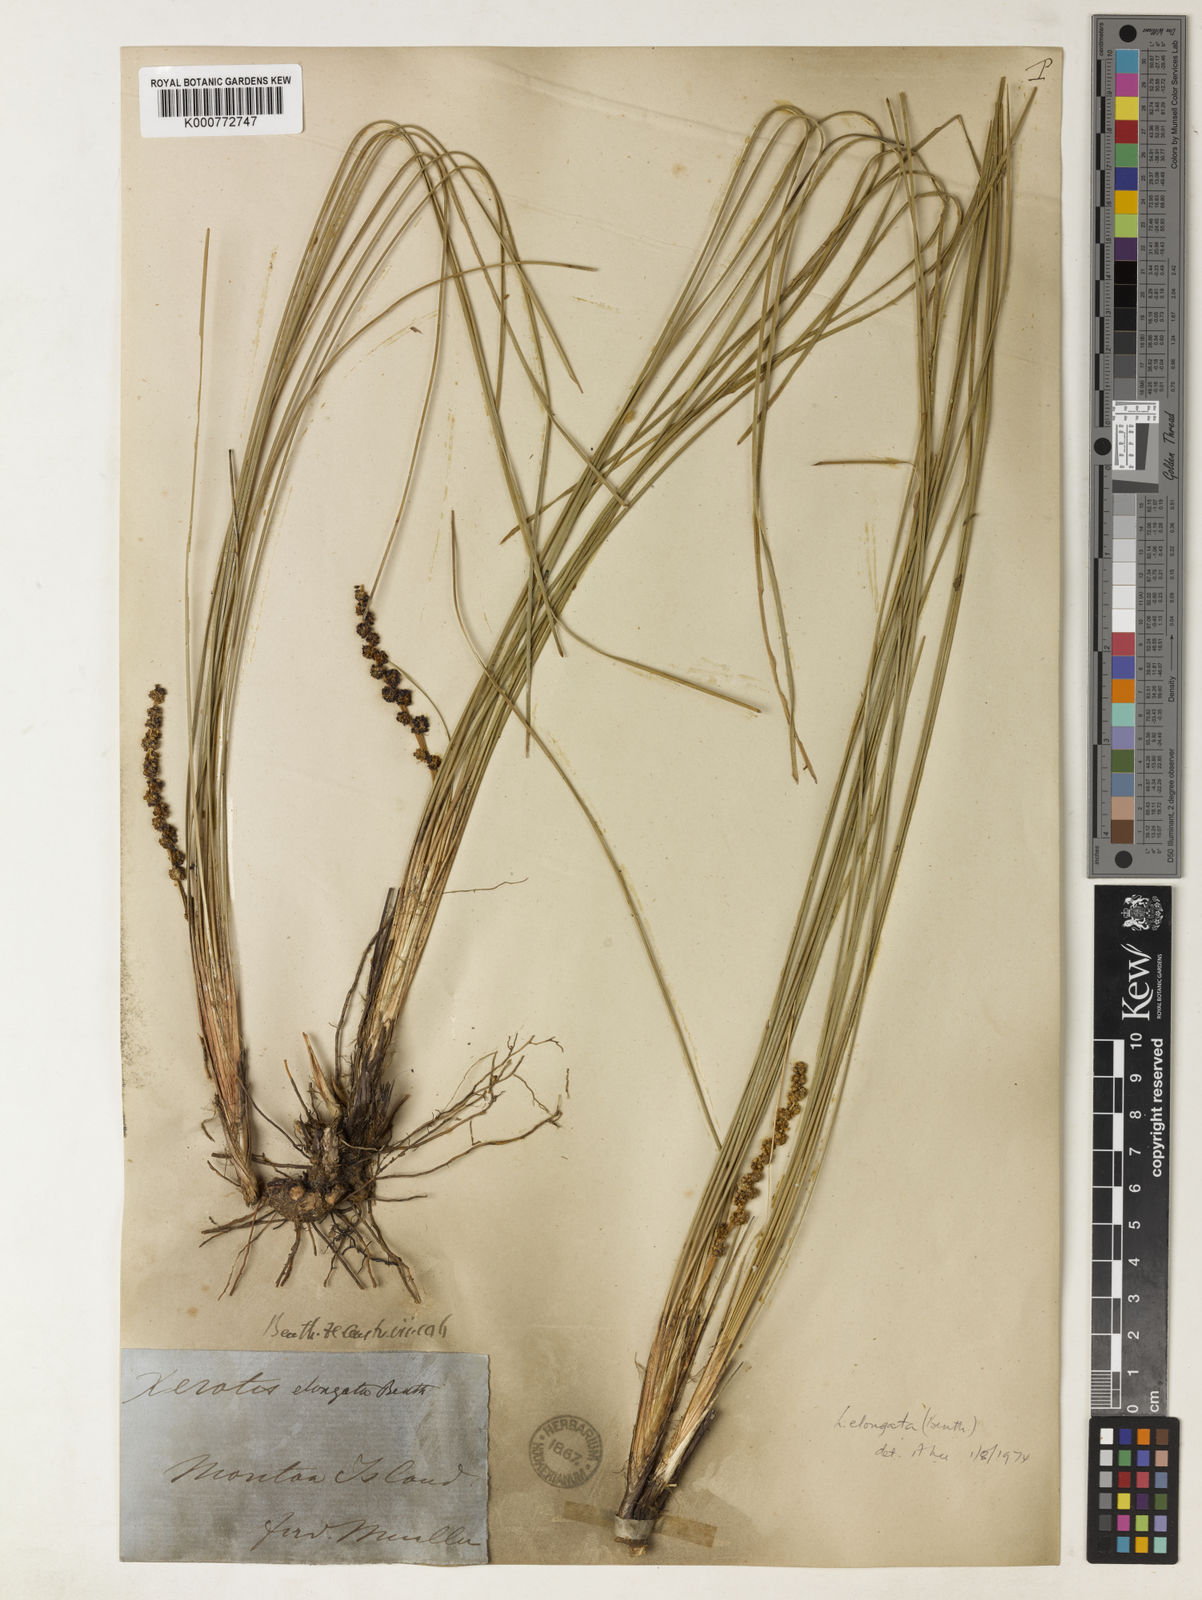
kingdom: Plantae
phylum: Tracheophyta
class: Liliopsida
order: Asparagales
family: Asparagaceae
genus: Lomandra
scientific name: Lomandra elongata
